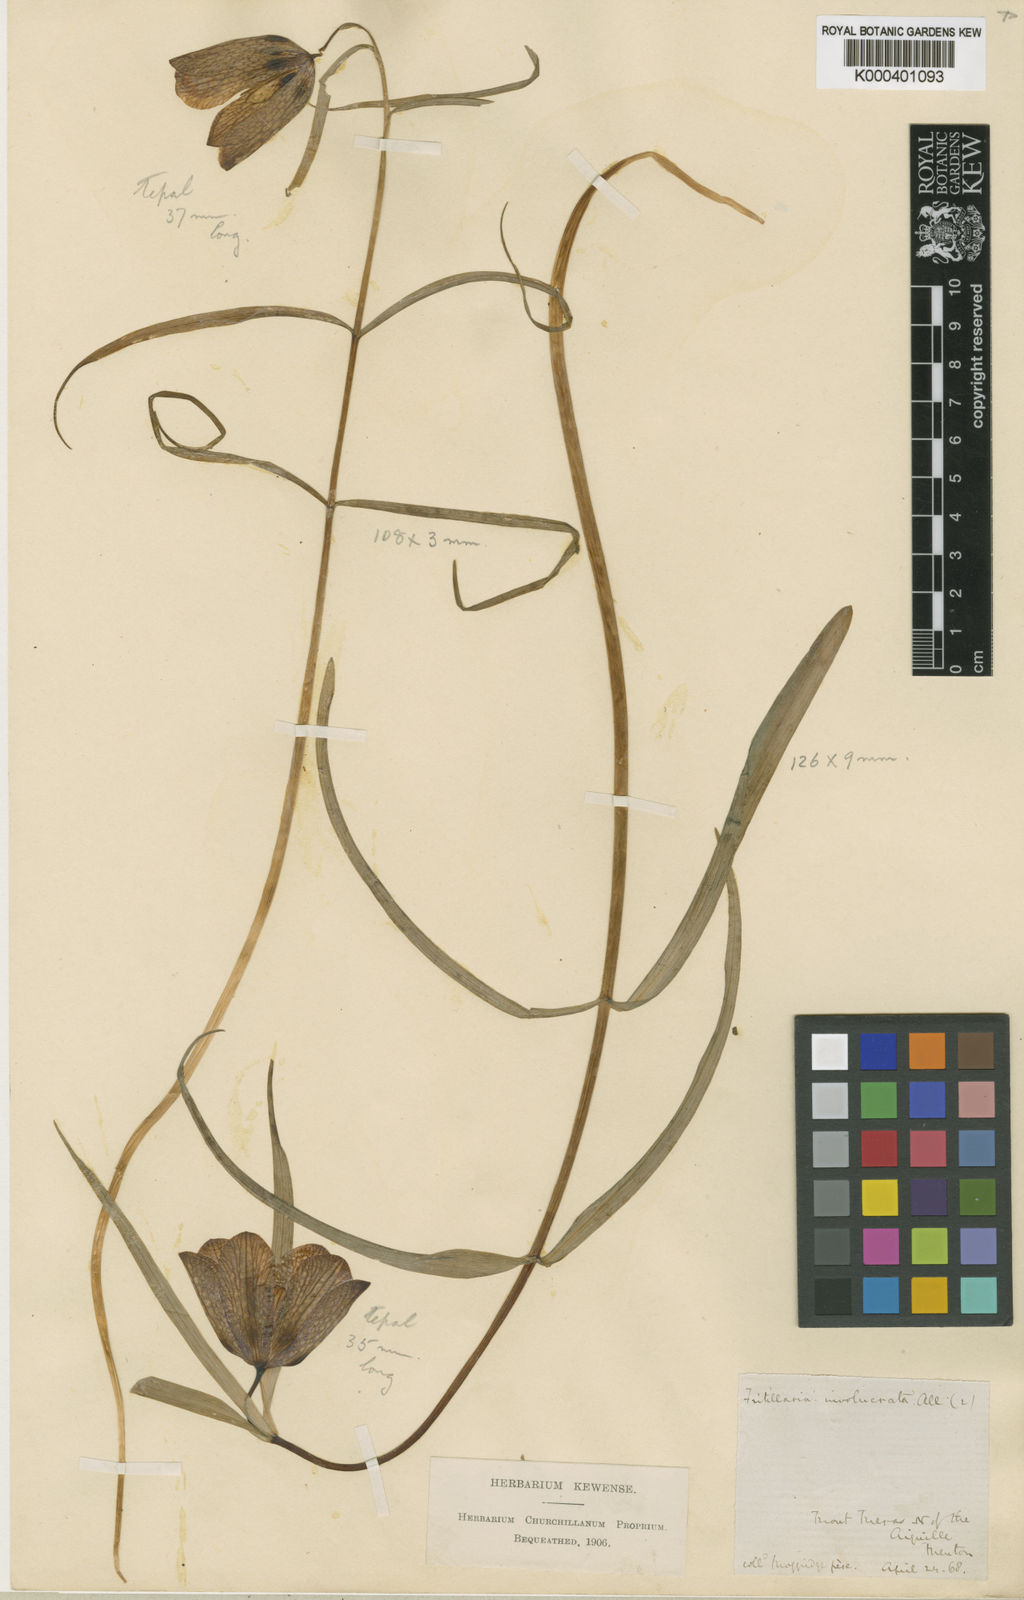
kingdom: Plantae
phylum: Tracheophyta
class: Liliopsida
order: Liliales
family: Liliaceae
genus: Fritillaria
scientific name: Fritillaria involucrata
